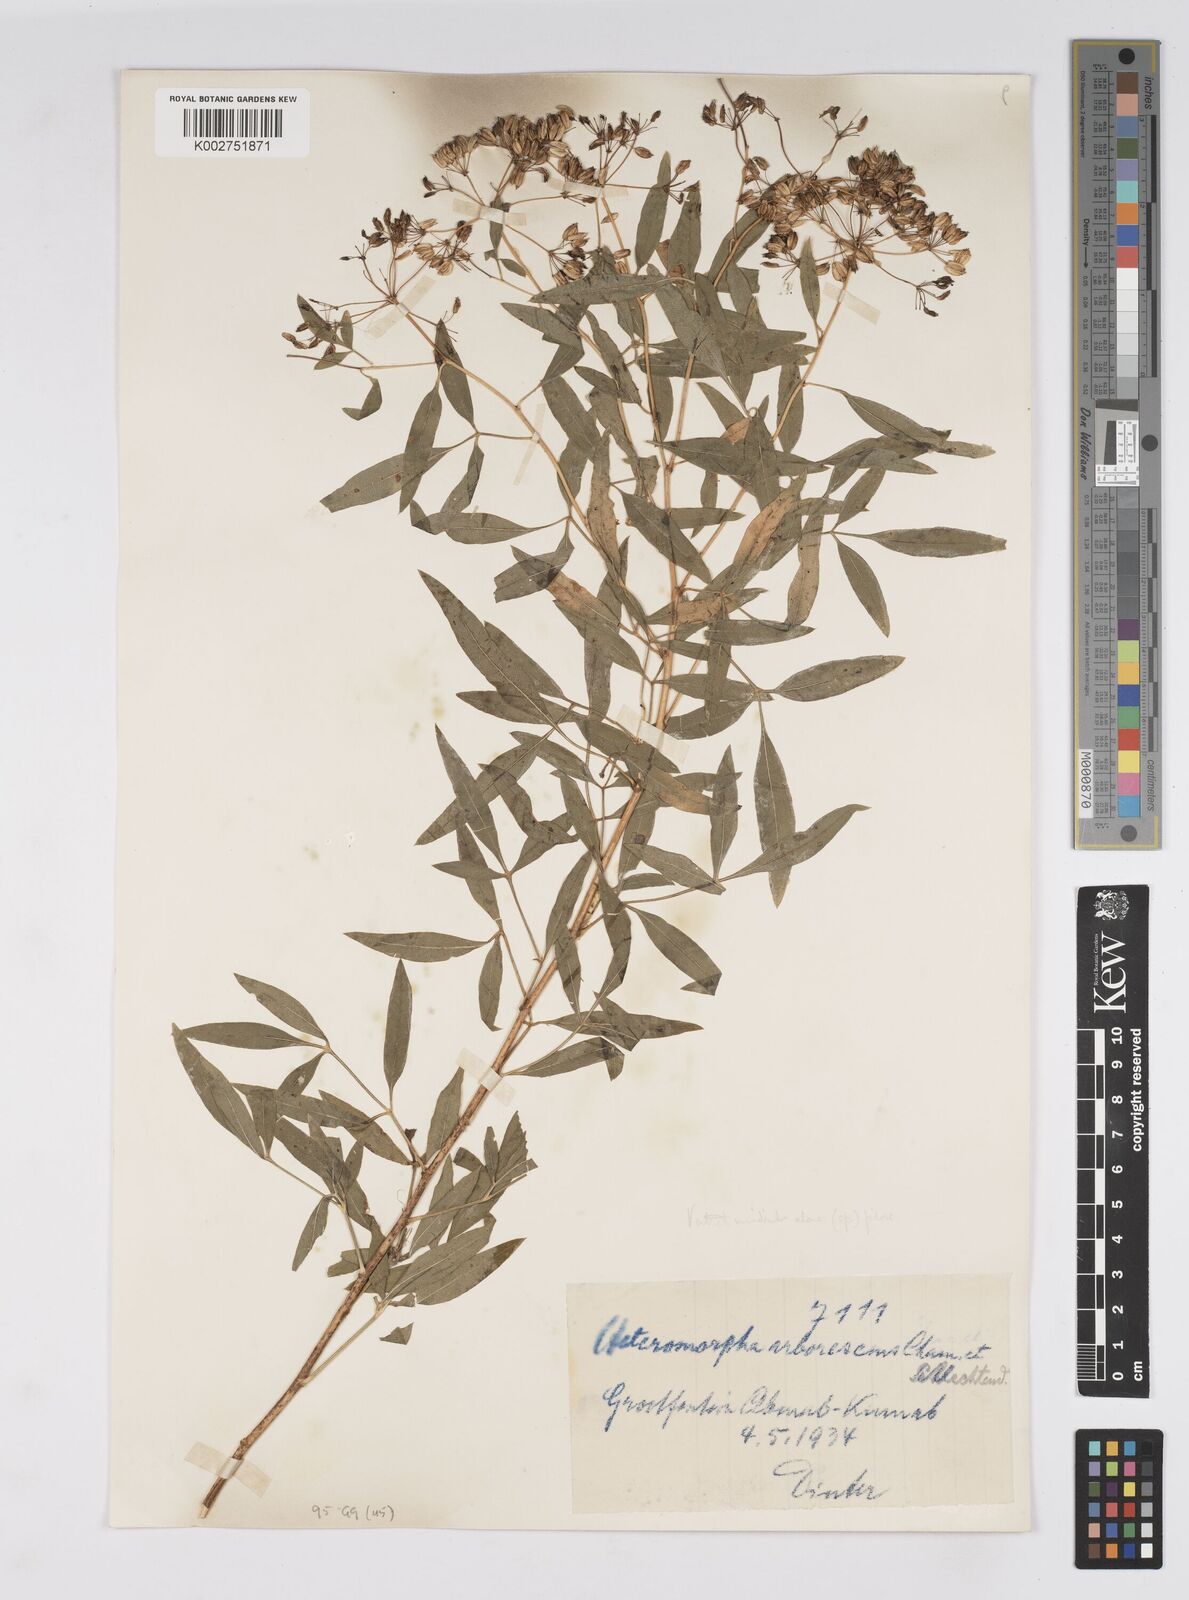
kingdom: Plantae
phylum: Tracheophyta
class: Magnoliopsida
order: Apiales
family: Apiaceae
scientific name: Apiaceae
